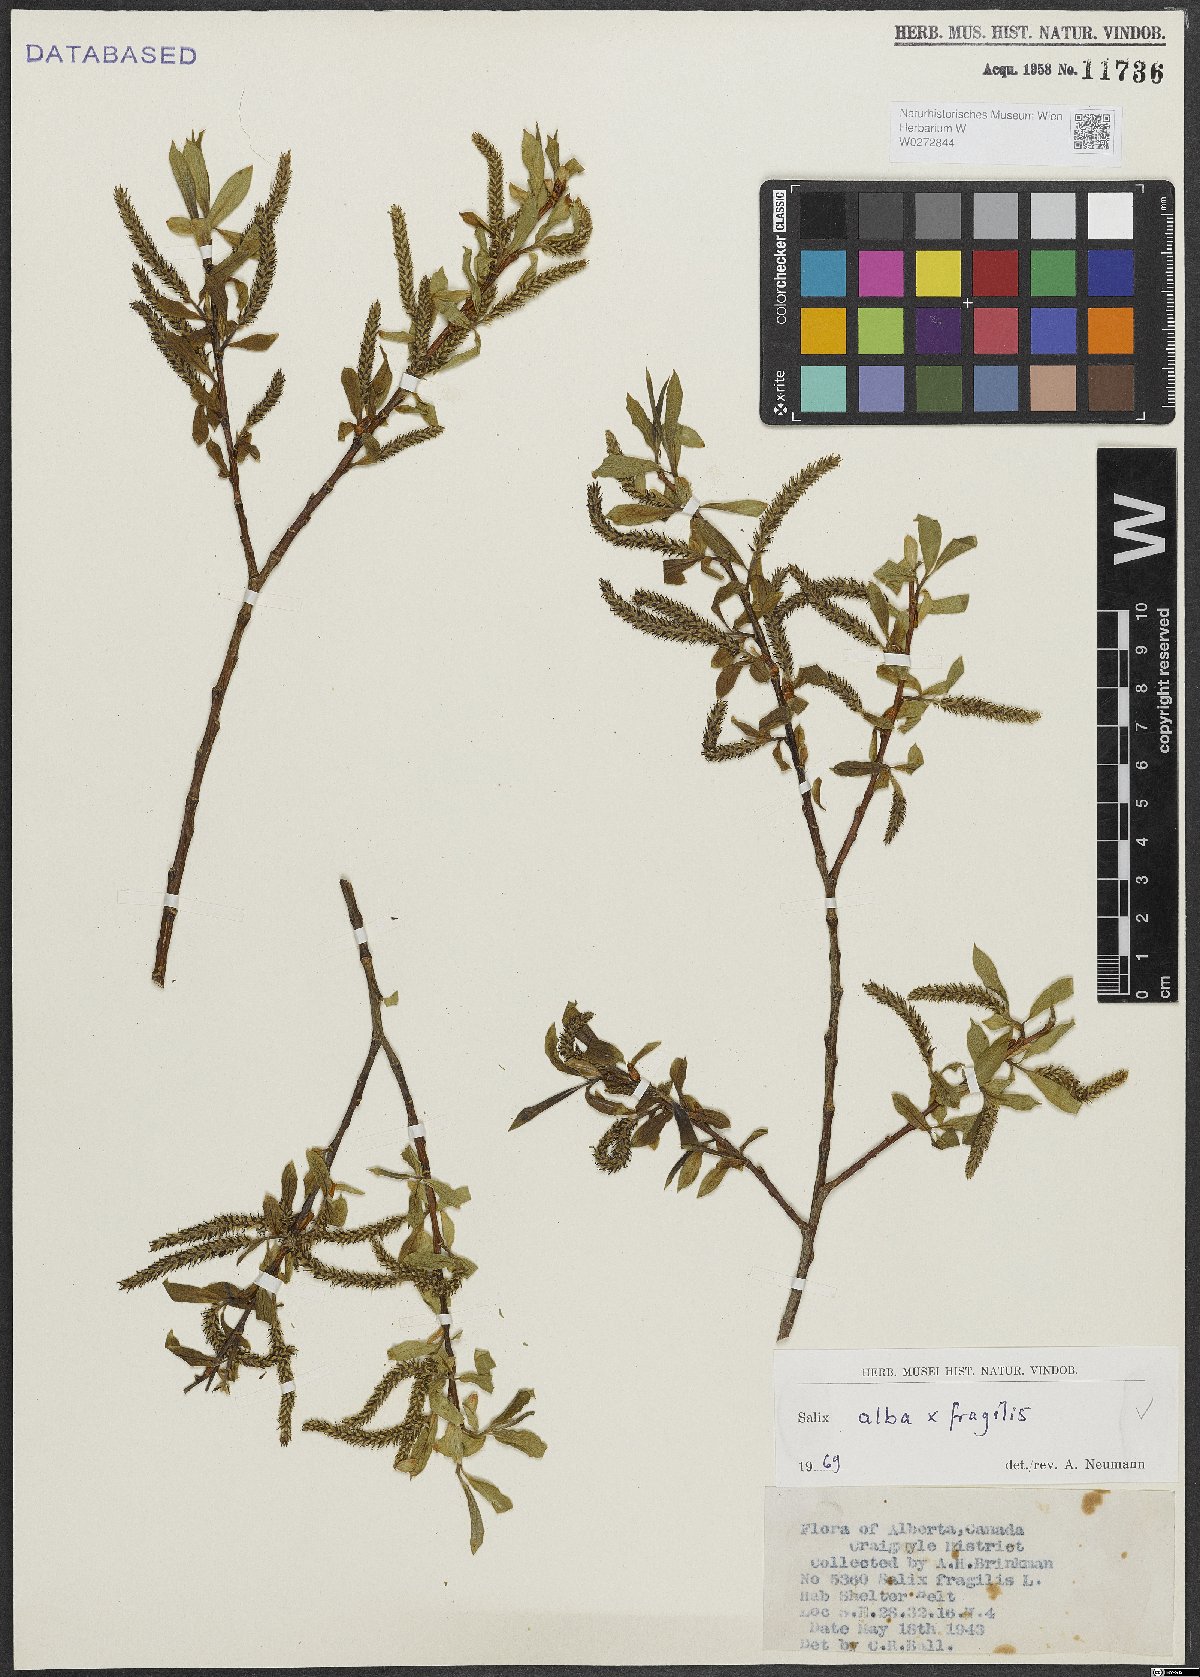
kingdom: Plantae
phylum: Tracheophyta
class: Magnoliopsida
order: Malpighiales
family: Salicaceae
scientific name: Salicaceae
